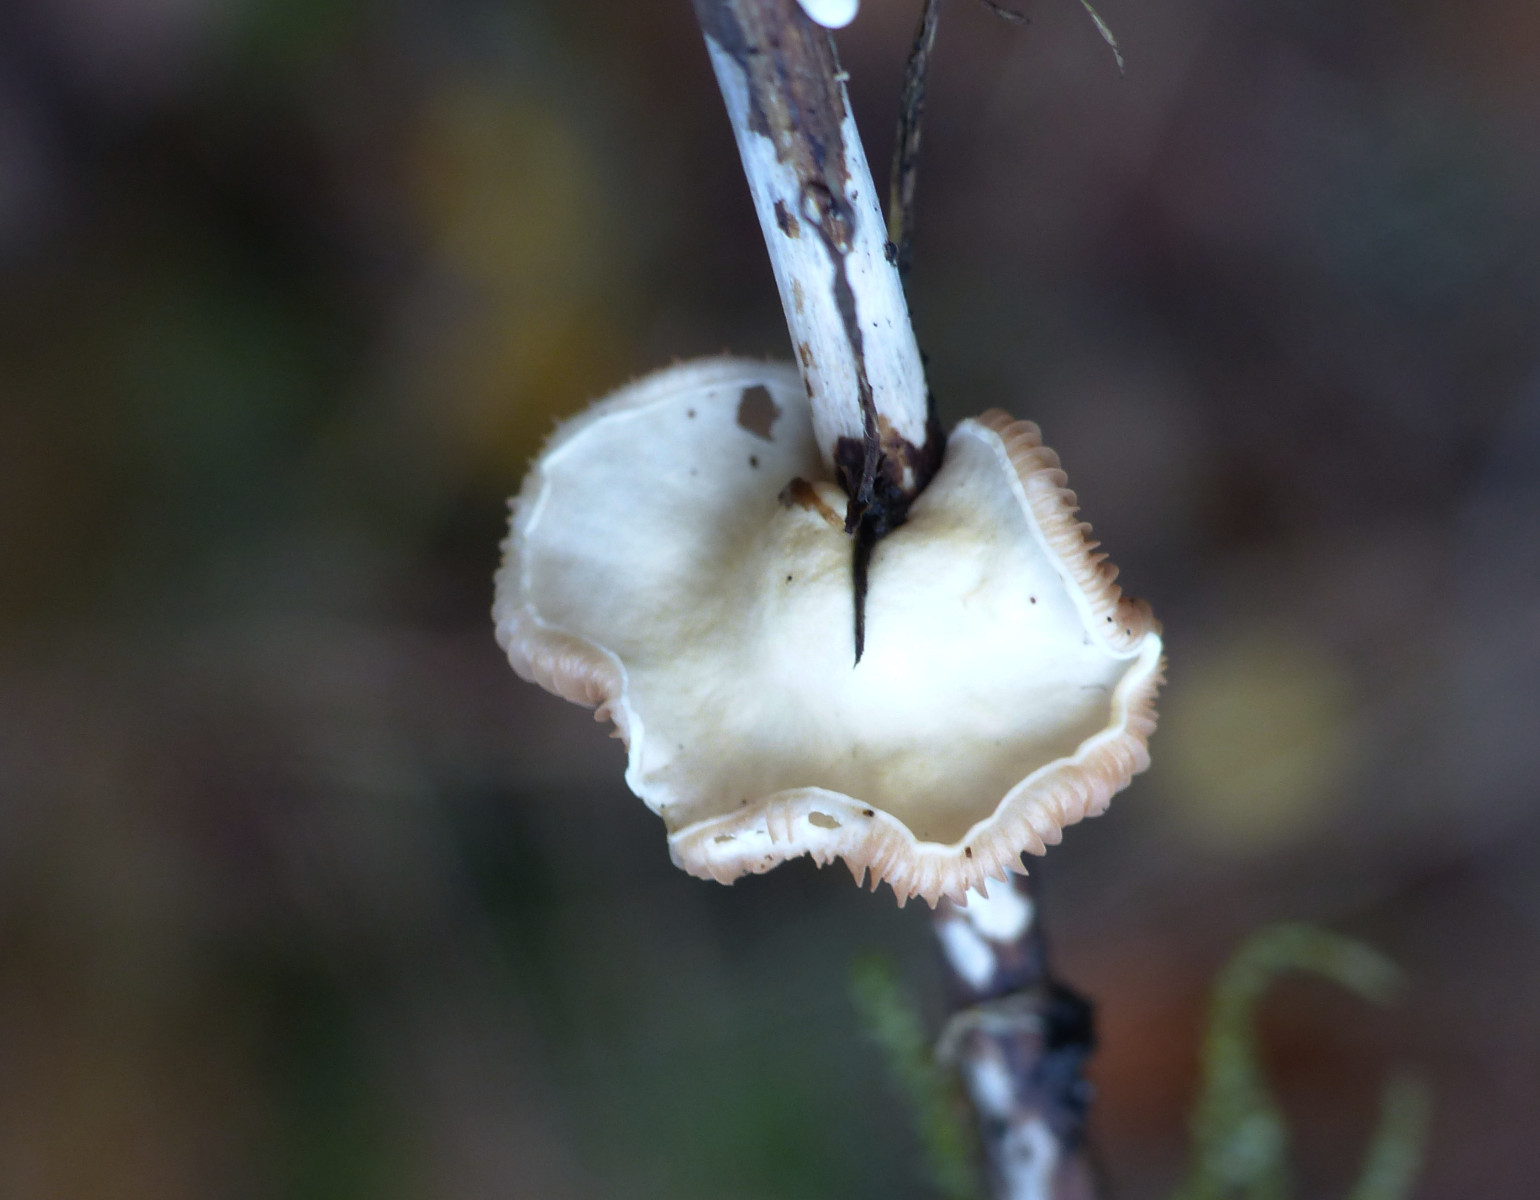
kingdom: Fungi
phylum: Basidiomycota
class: Agaricomycetes
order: Agaricales
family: Crepidotaceae
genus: Crepidotus
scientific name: Crepidotus luteolus
